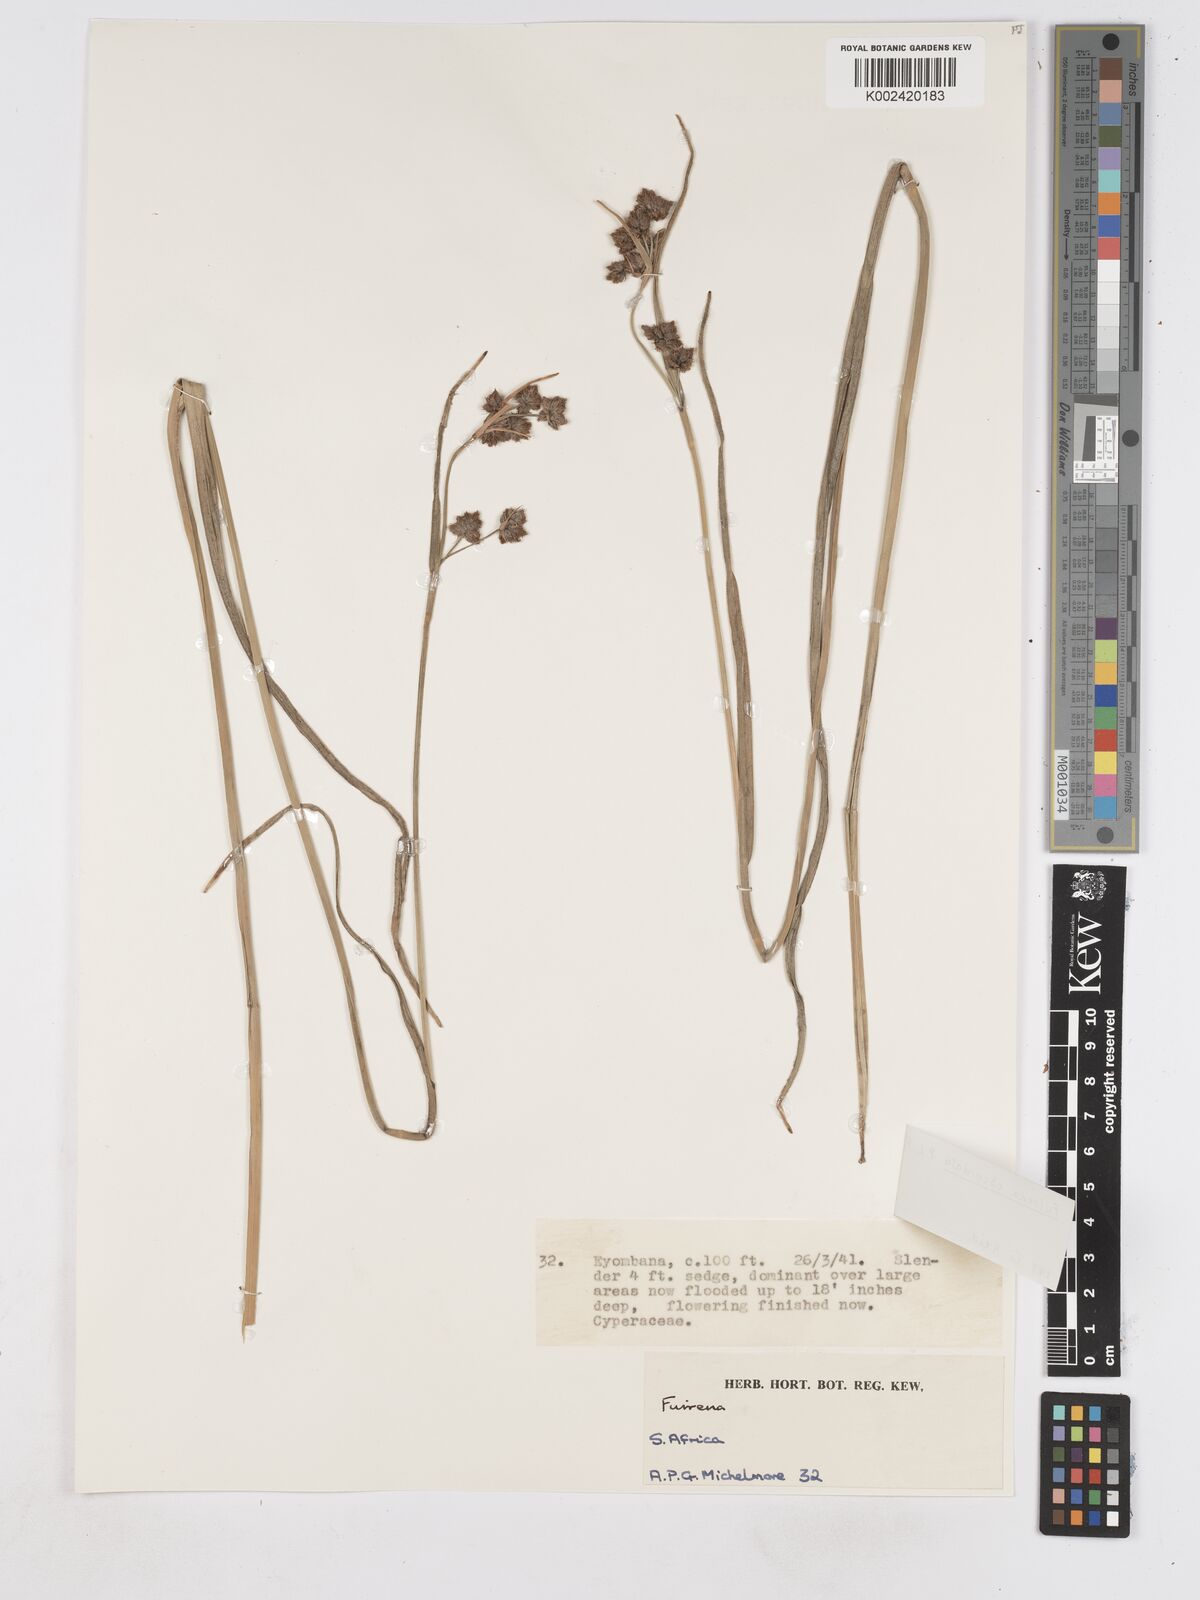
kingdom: Plantae
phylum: Tracheophyta
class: Liliopsida
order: Poales
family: Cyperaceae
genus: Fuirena
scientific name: Fuirena obcordata
